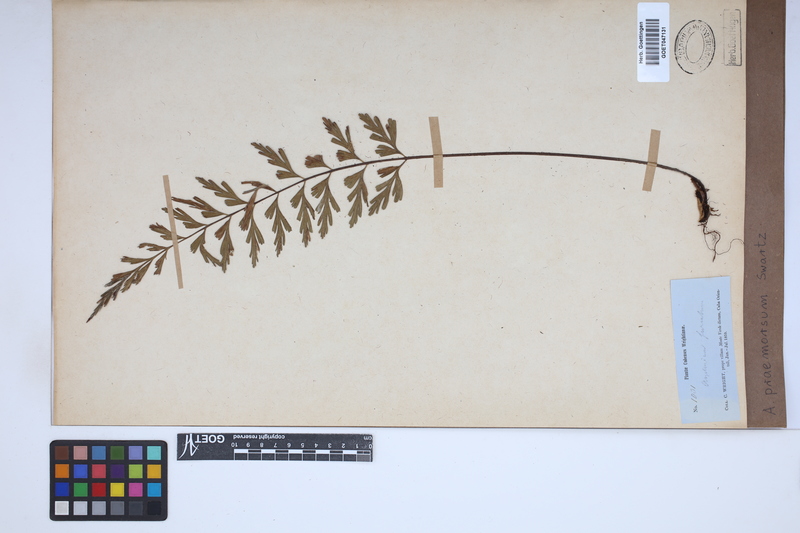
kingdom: Plantae
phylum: Tracheophyta
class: Polypodiopsida
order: Polypodiales
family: Aspleniaceae
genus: Asplenium
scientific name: Asplenium praemorsum
